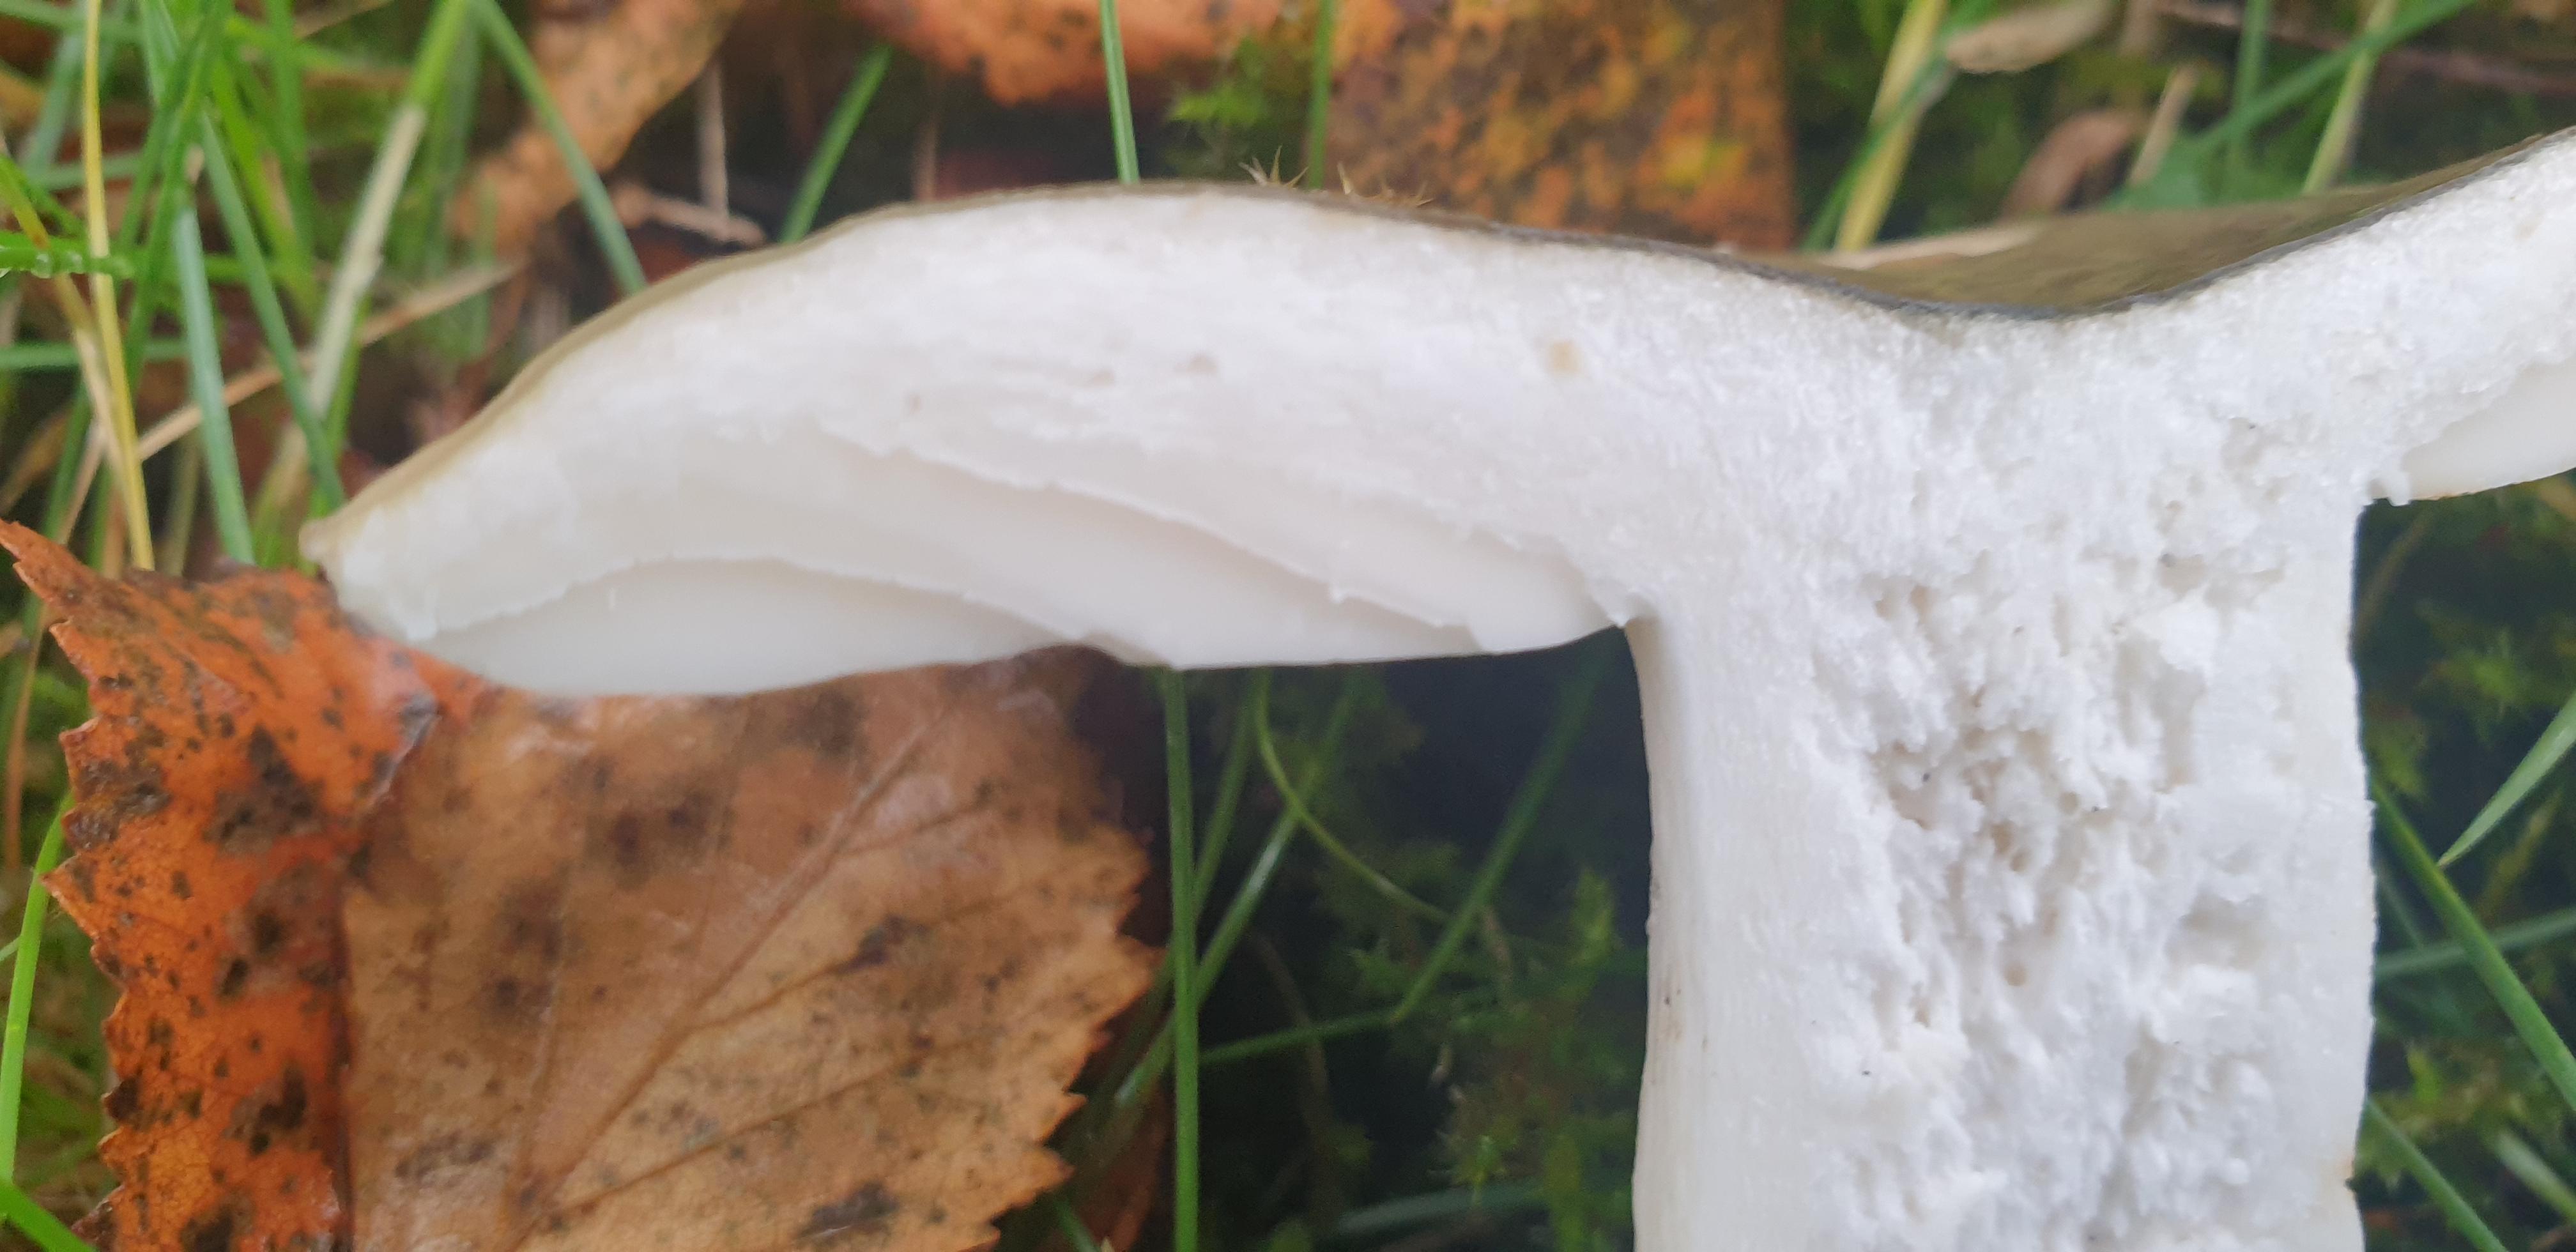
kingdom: Fungi
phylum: Basidiomycota
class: Agaricomycetes
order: Russulales
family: Russulaceae
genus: Russula
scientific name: Russula aeruginea
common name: græsgrøn skørhat
